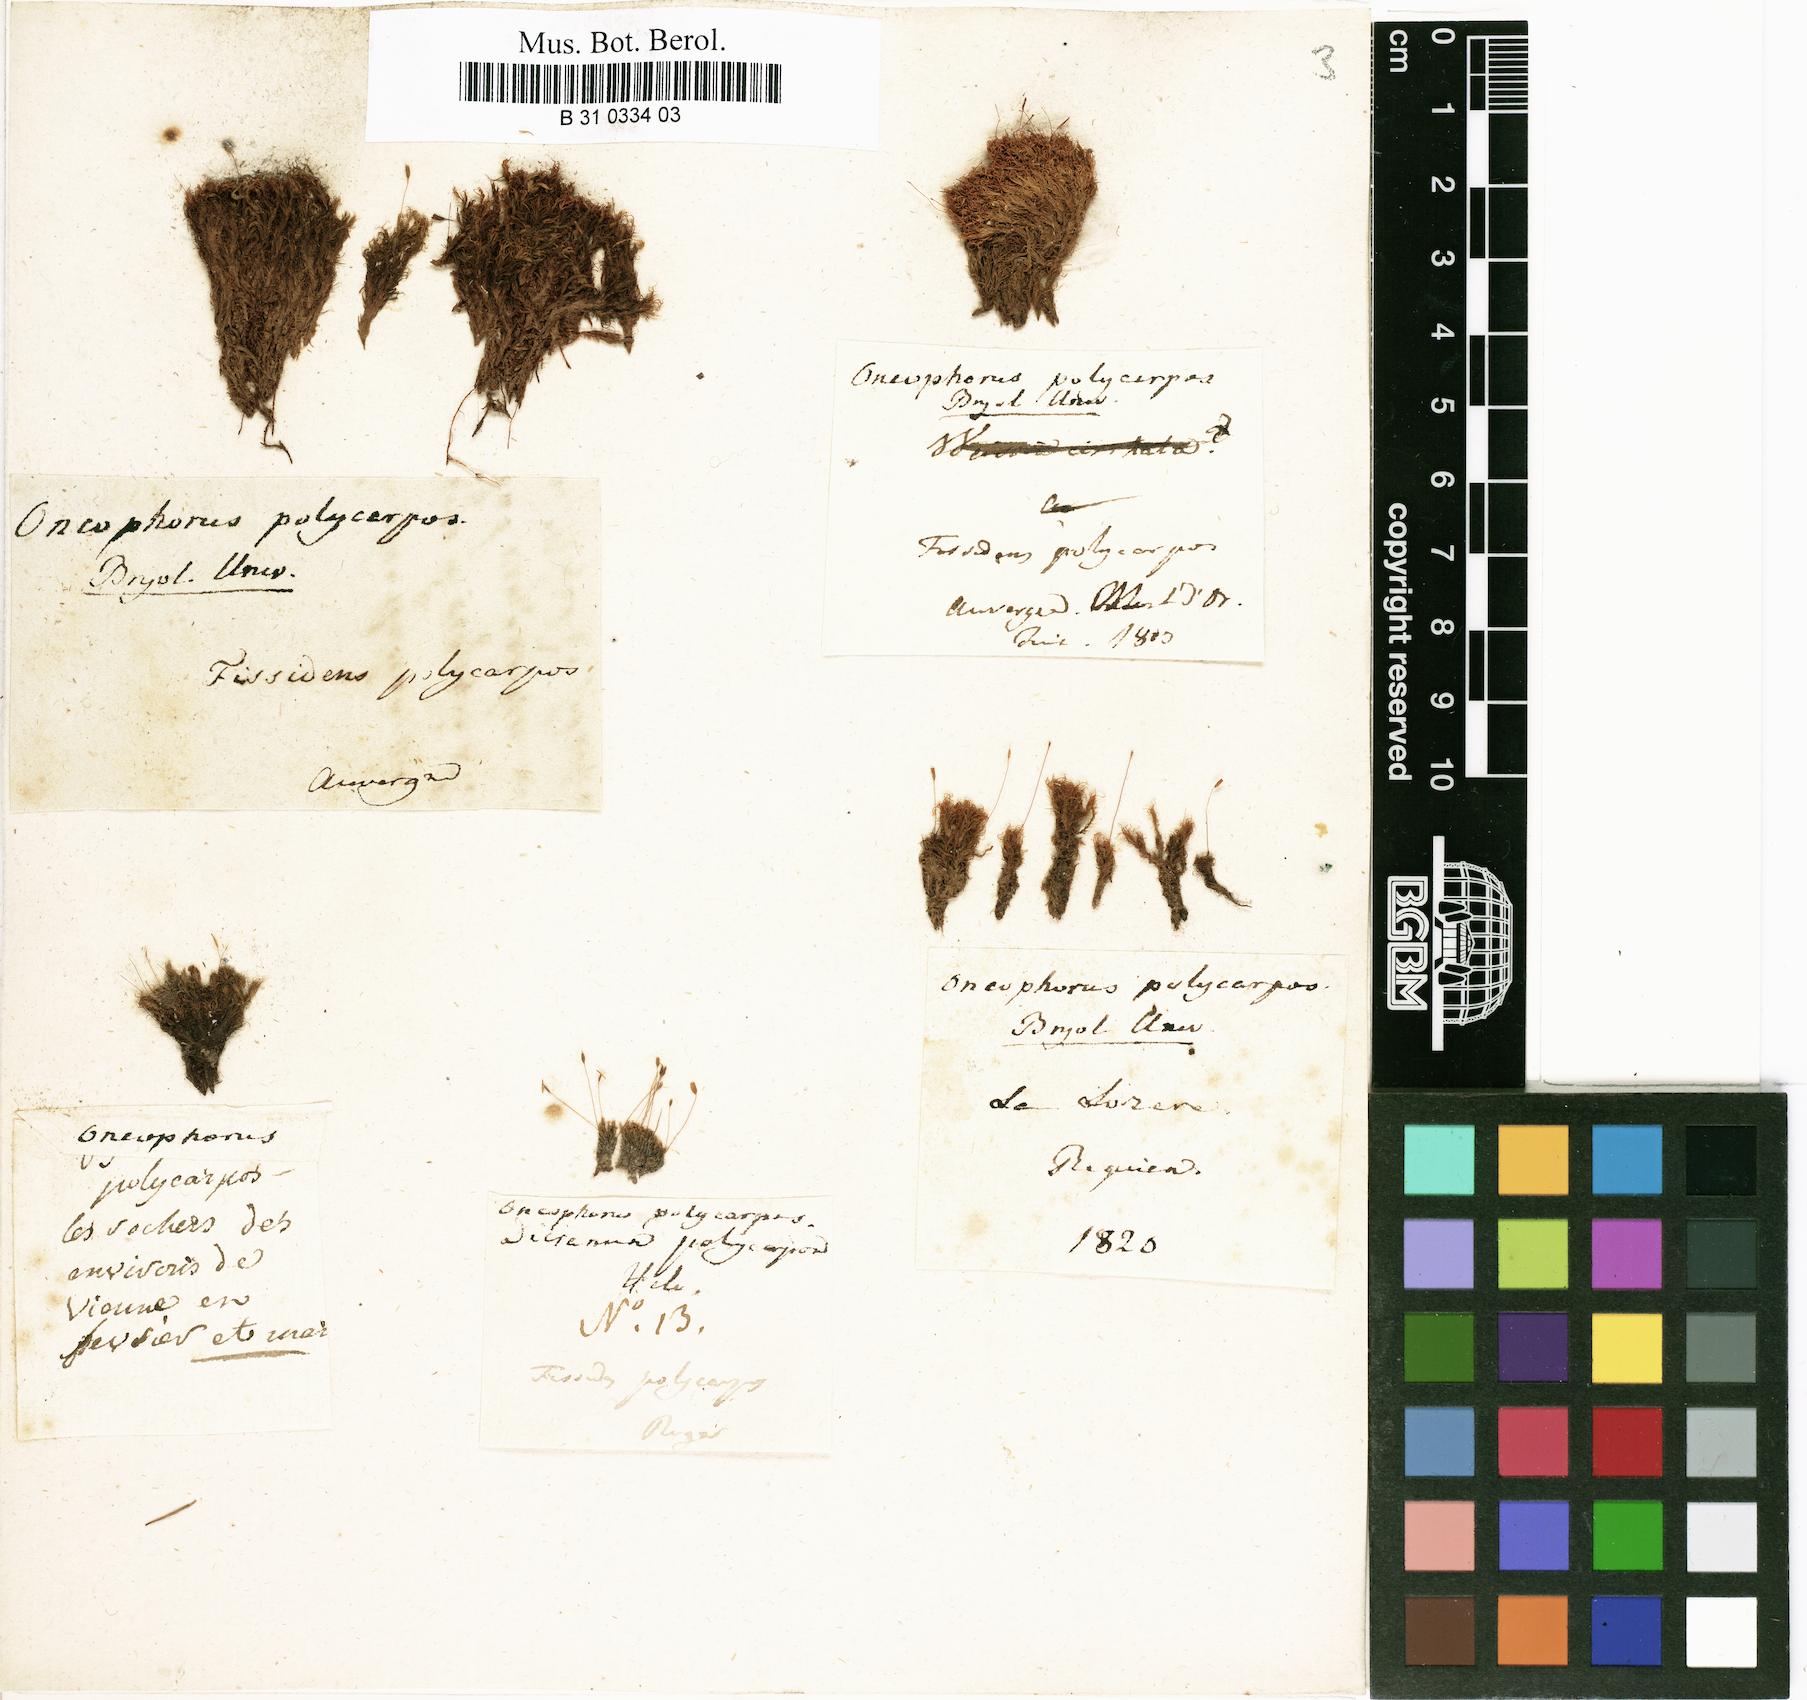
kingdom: Plantae
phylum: Bryophyta
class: Bryopsida
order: Dicranales
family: Rhabdoweisiaceae
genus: Cynodontium
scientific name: Cynodontium polycarpon
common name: Many-fruited dogtooth moss
